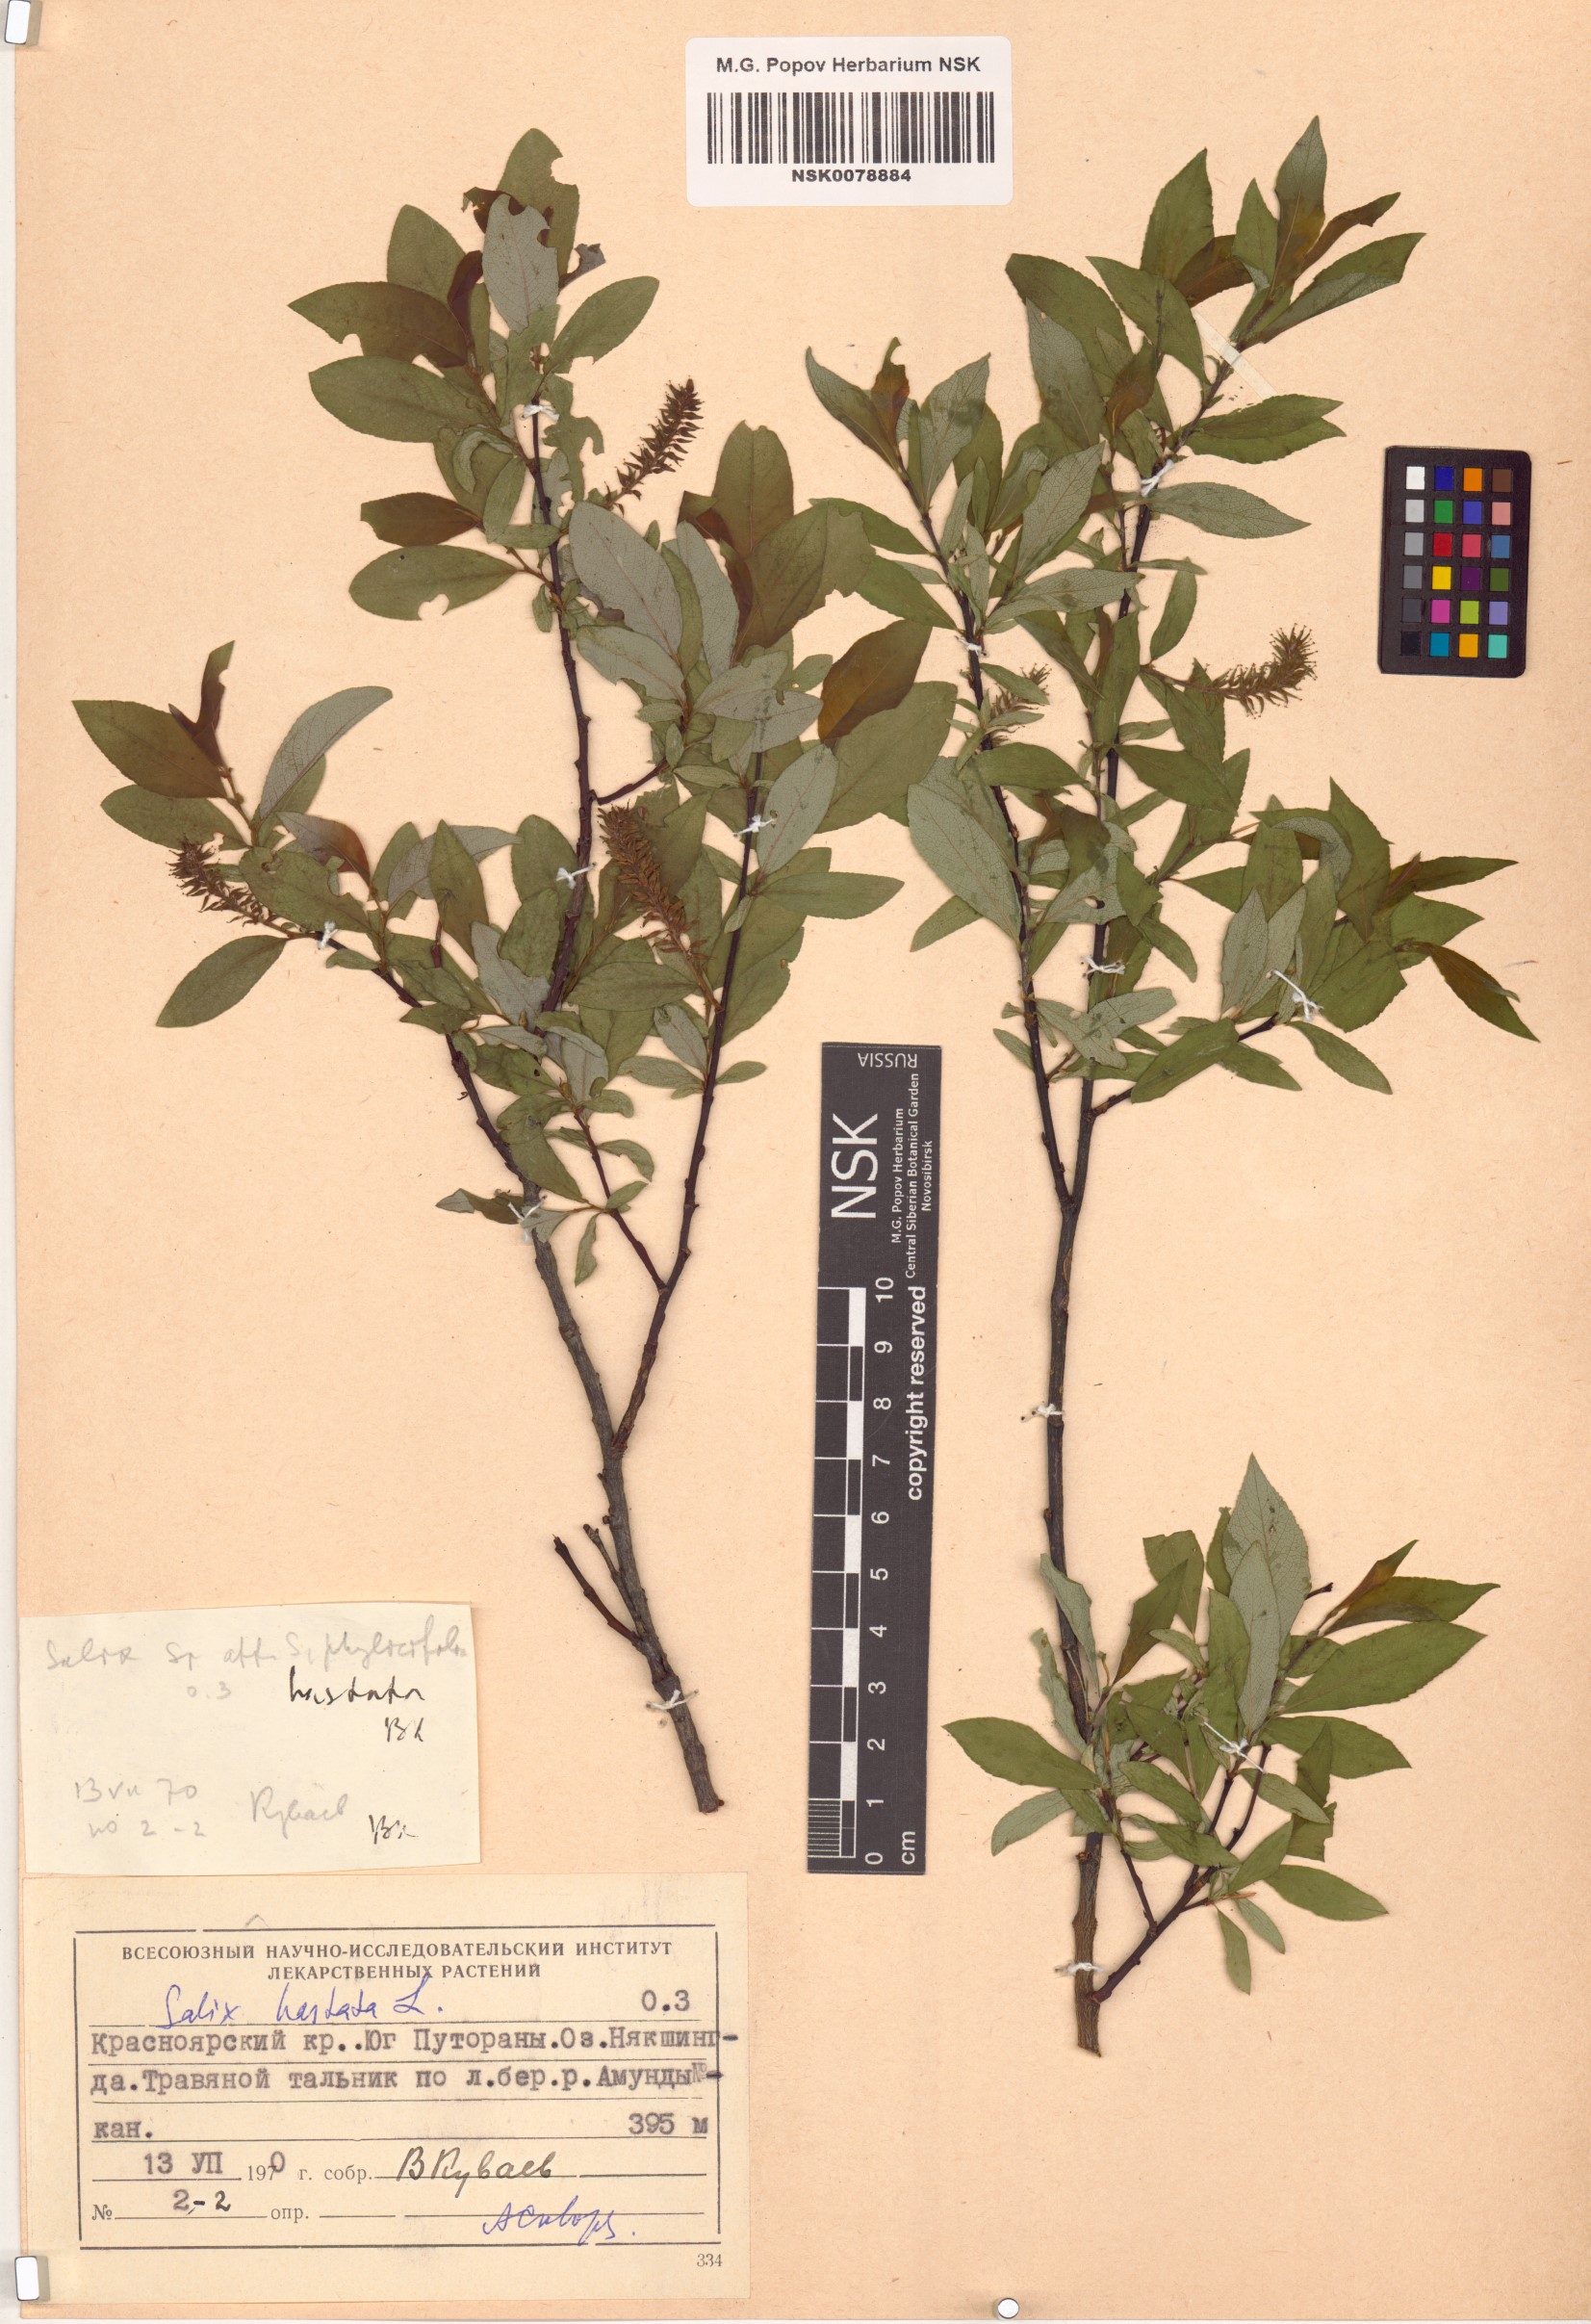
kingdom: Plantae
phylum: Tracheophyta
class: Magnoliopsida
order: Malpighiales
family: Salicaceae
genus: Salix
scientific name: Salix hastata
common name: Halberd willow
